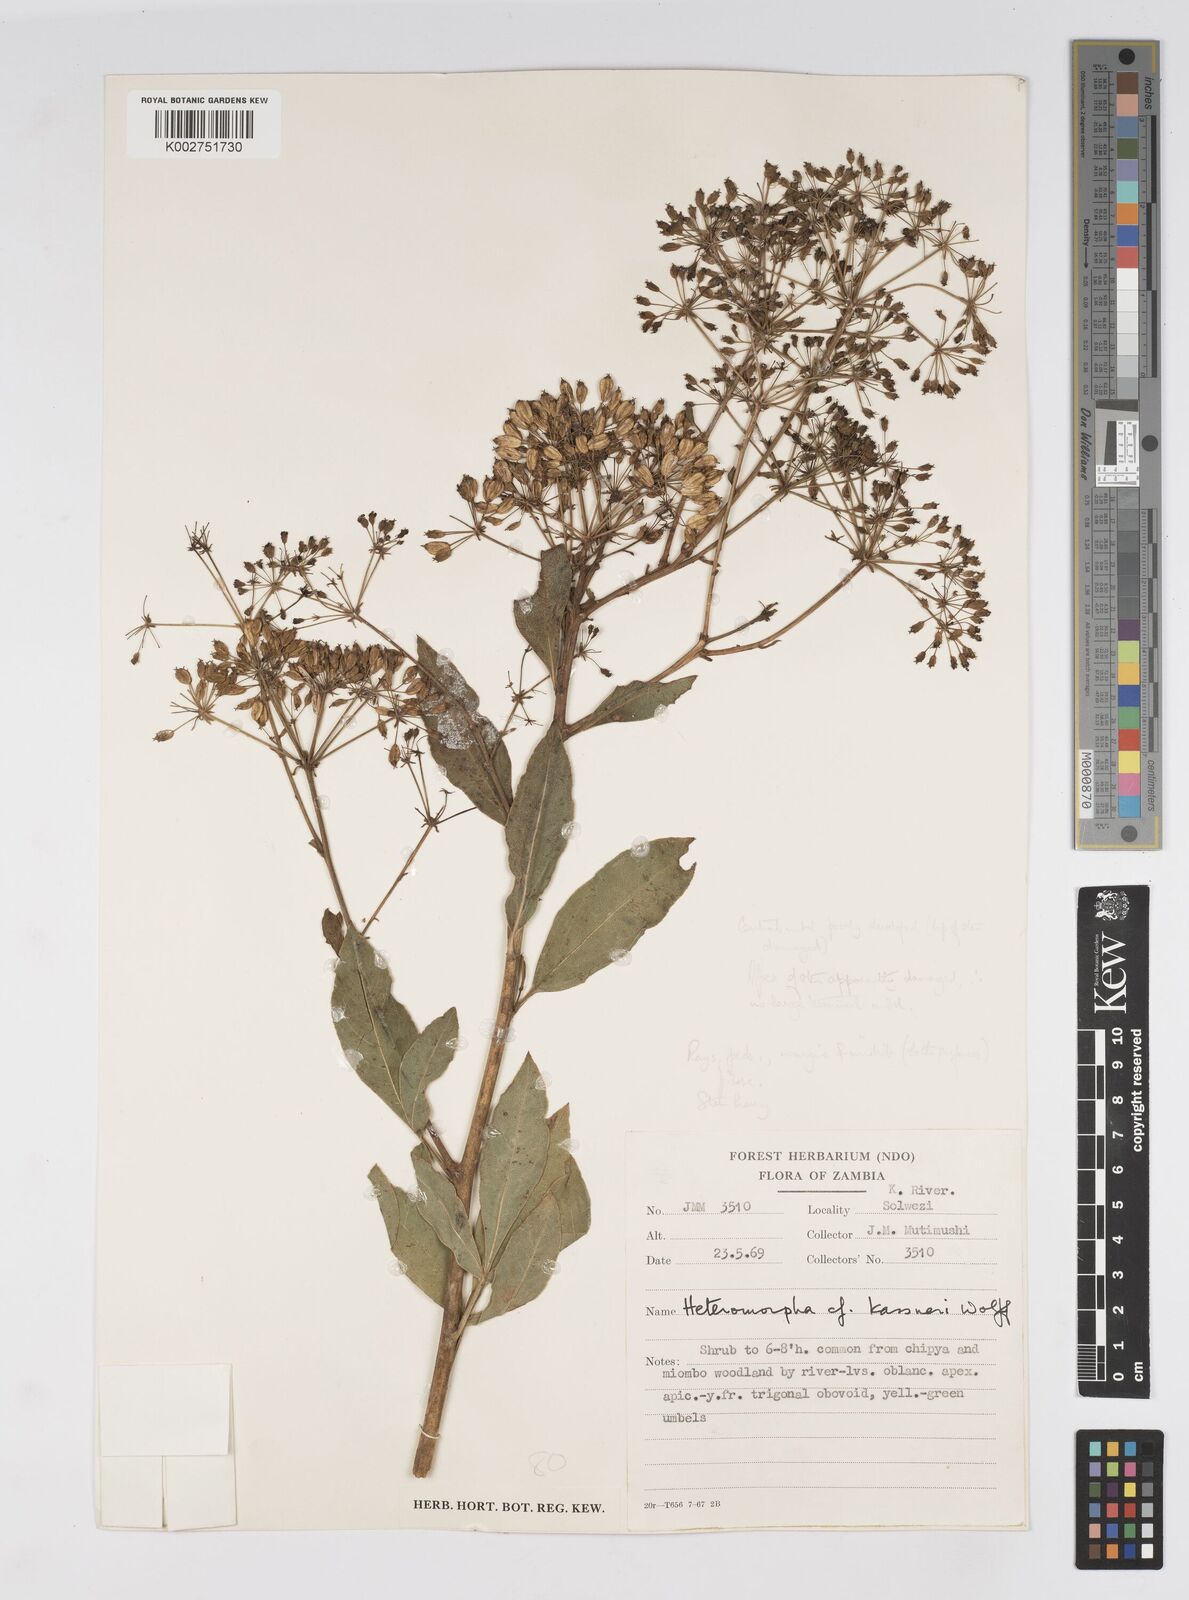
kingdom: Plantae
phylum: Tracheophyta
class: Magnoliopsida
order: Apiales
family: Apiaceae
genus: Heteromorpha
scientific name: Heteromorpha involucrata
